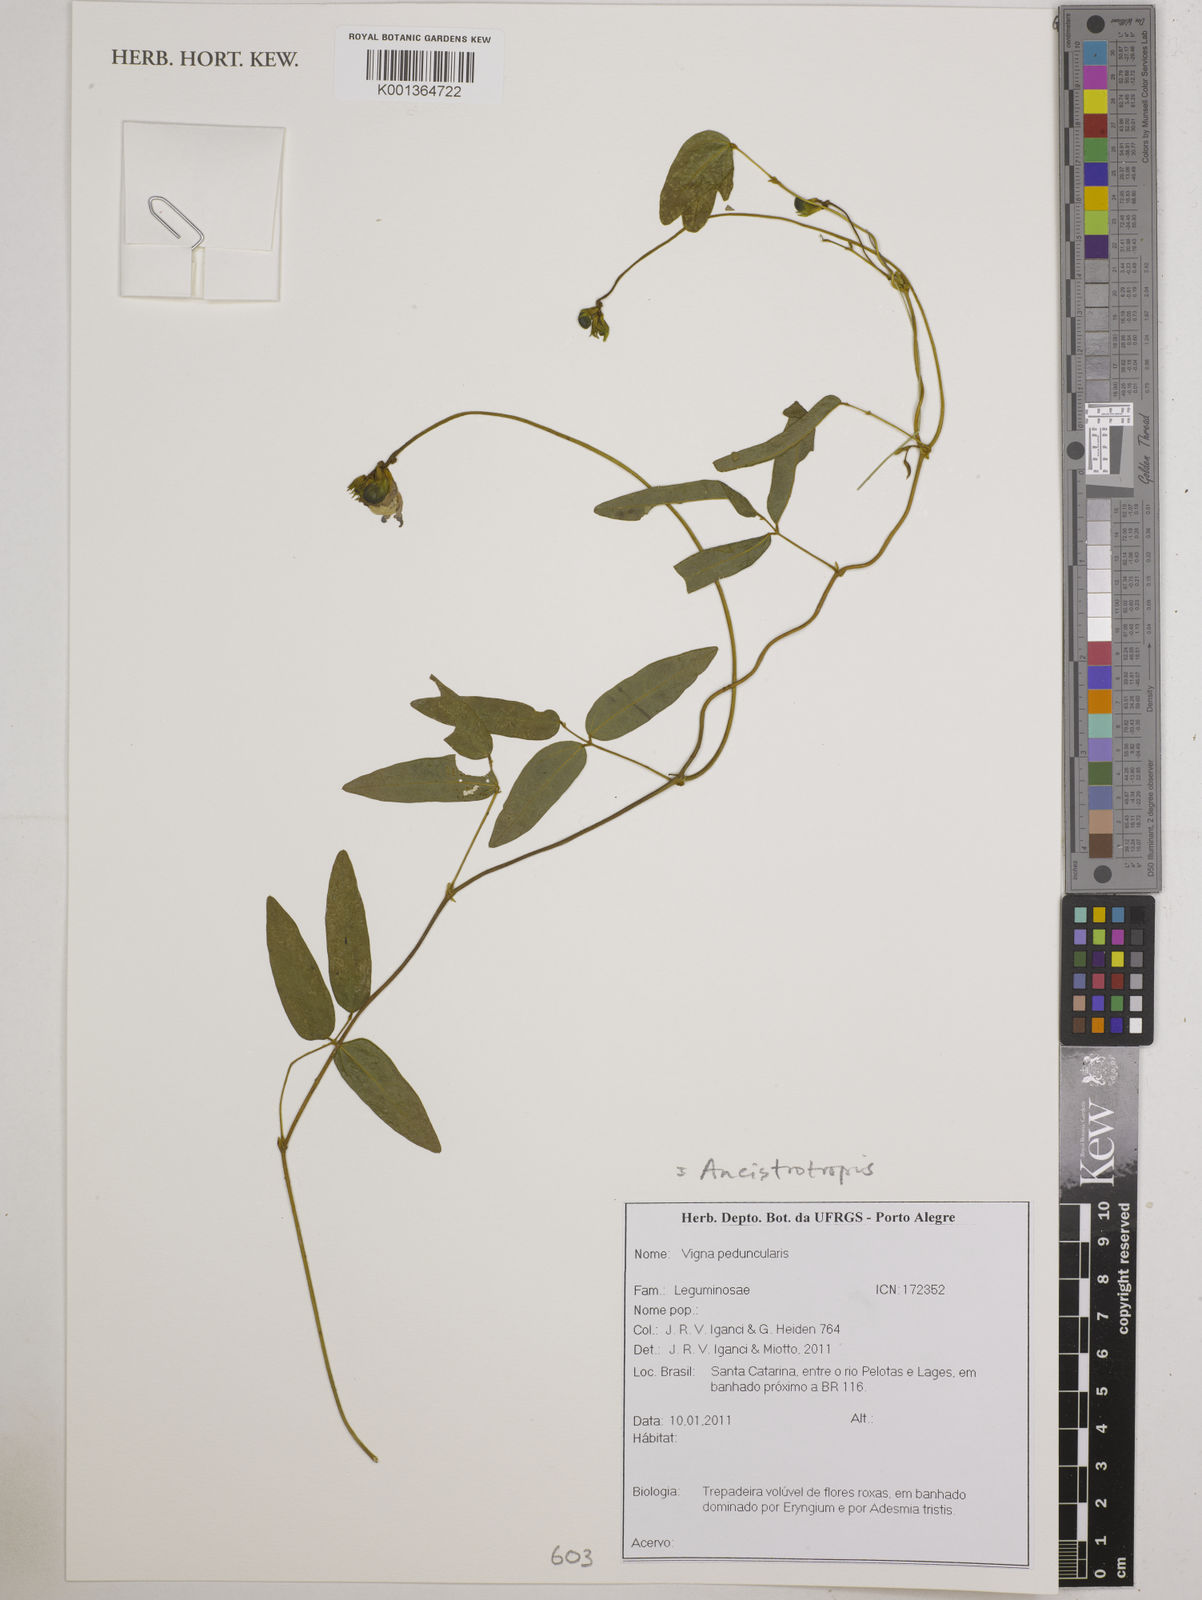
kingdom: Plantae
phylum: Tracheophyta
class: Magnoliopsida
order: Fabales
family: Fabaceae
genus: Ancistrotropis
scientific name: Ancistrotropis peduncularis
